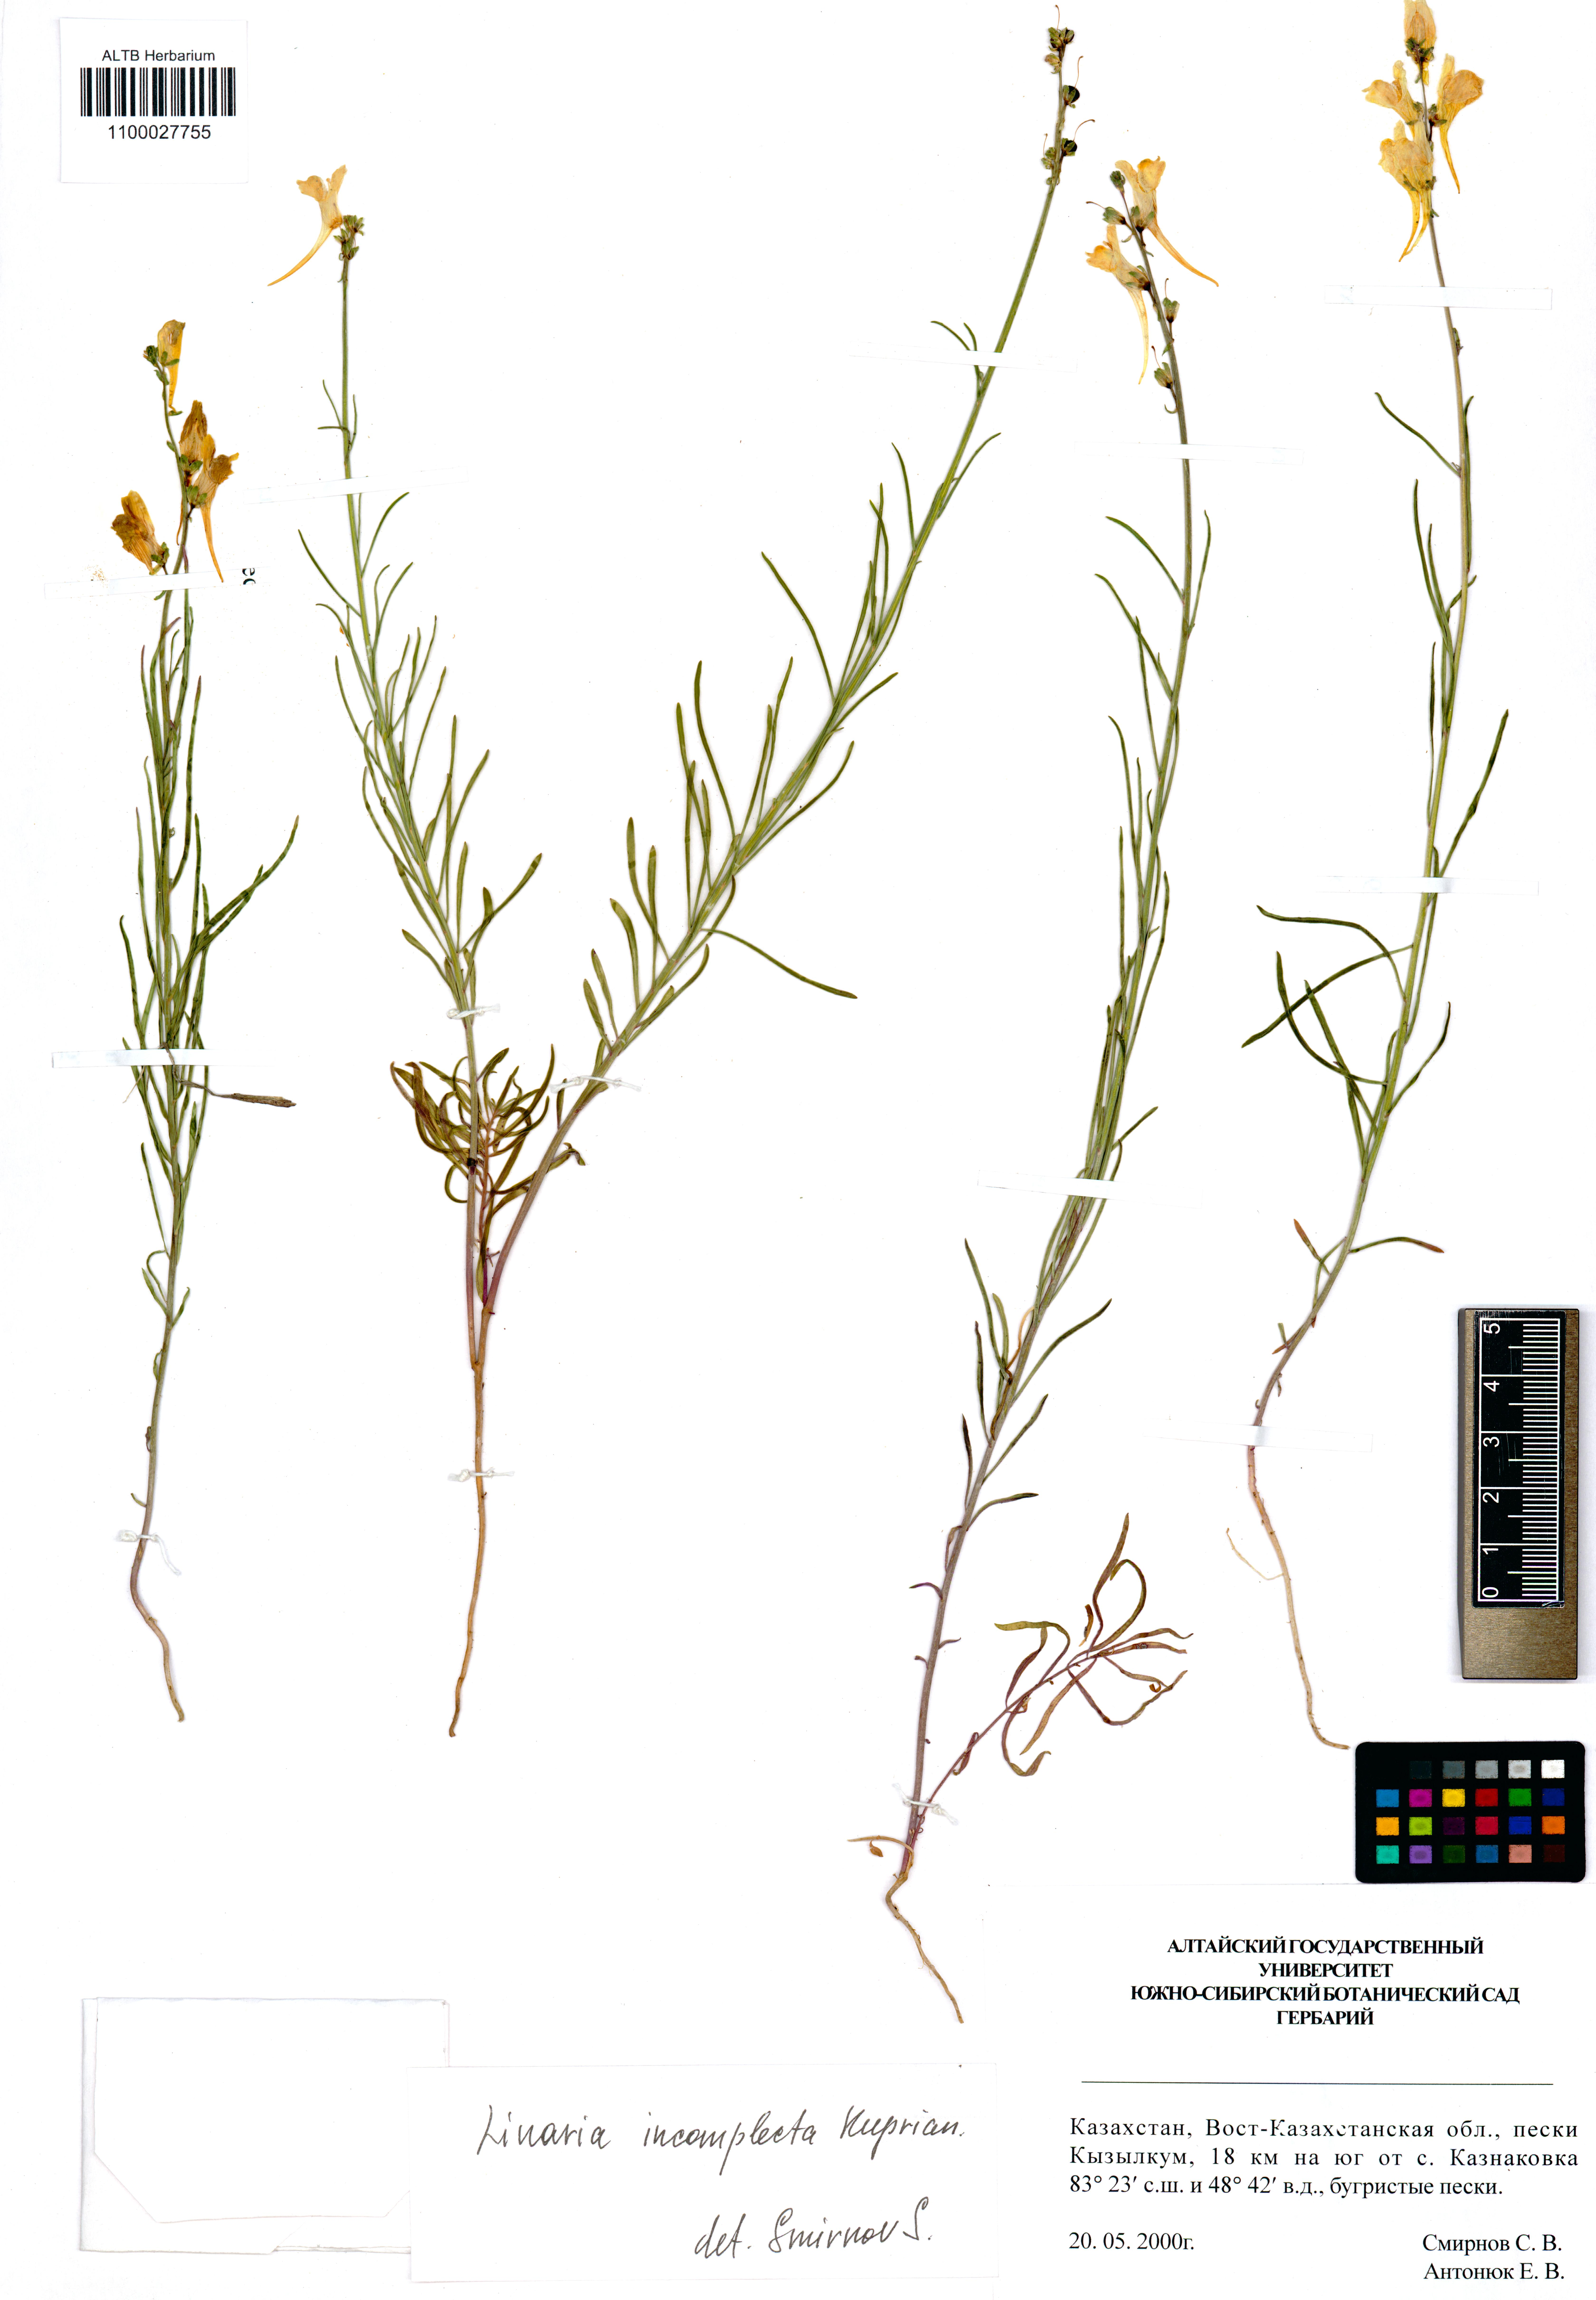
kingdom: Plantae
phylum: Tracheophyta
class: Magnoliopsida
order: Lamiales
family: Plantaginaceae
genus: Linaria
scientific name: Linaria incompleta
